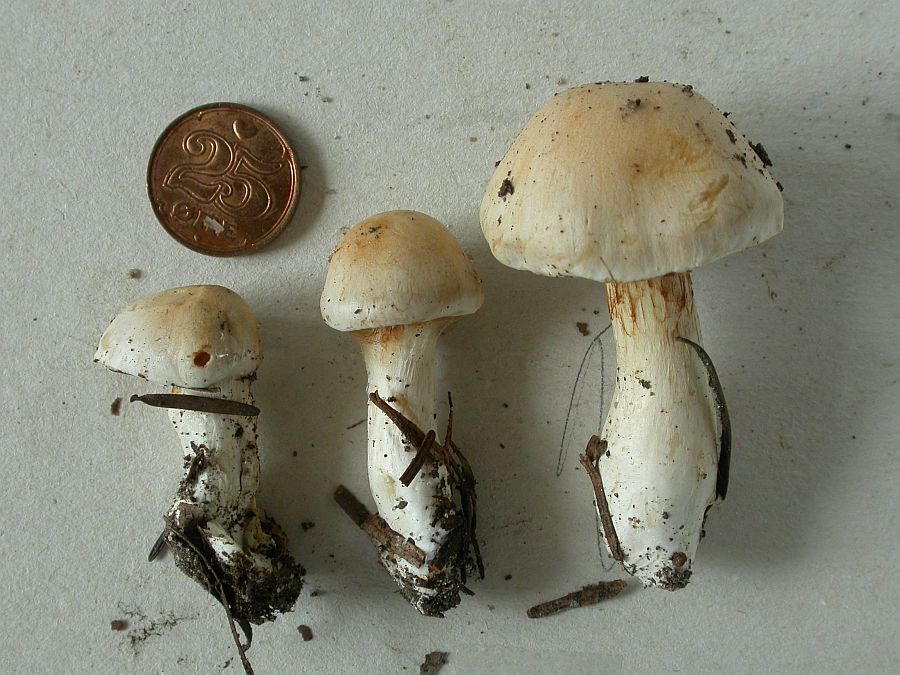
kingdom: Fungi
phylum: Basidiomycota
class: Agaricomycetes
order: Agaricales
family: Cortinariaceae
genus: Thaxterogaster
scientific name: Thaxterogaster leucoluteolus
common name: isabella slørhat
